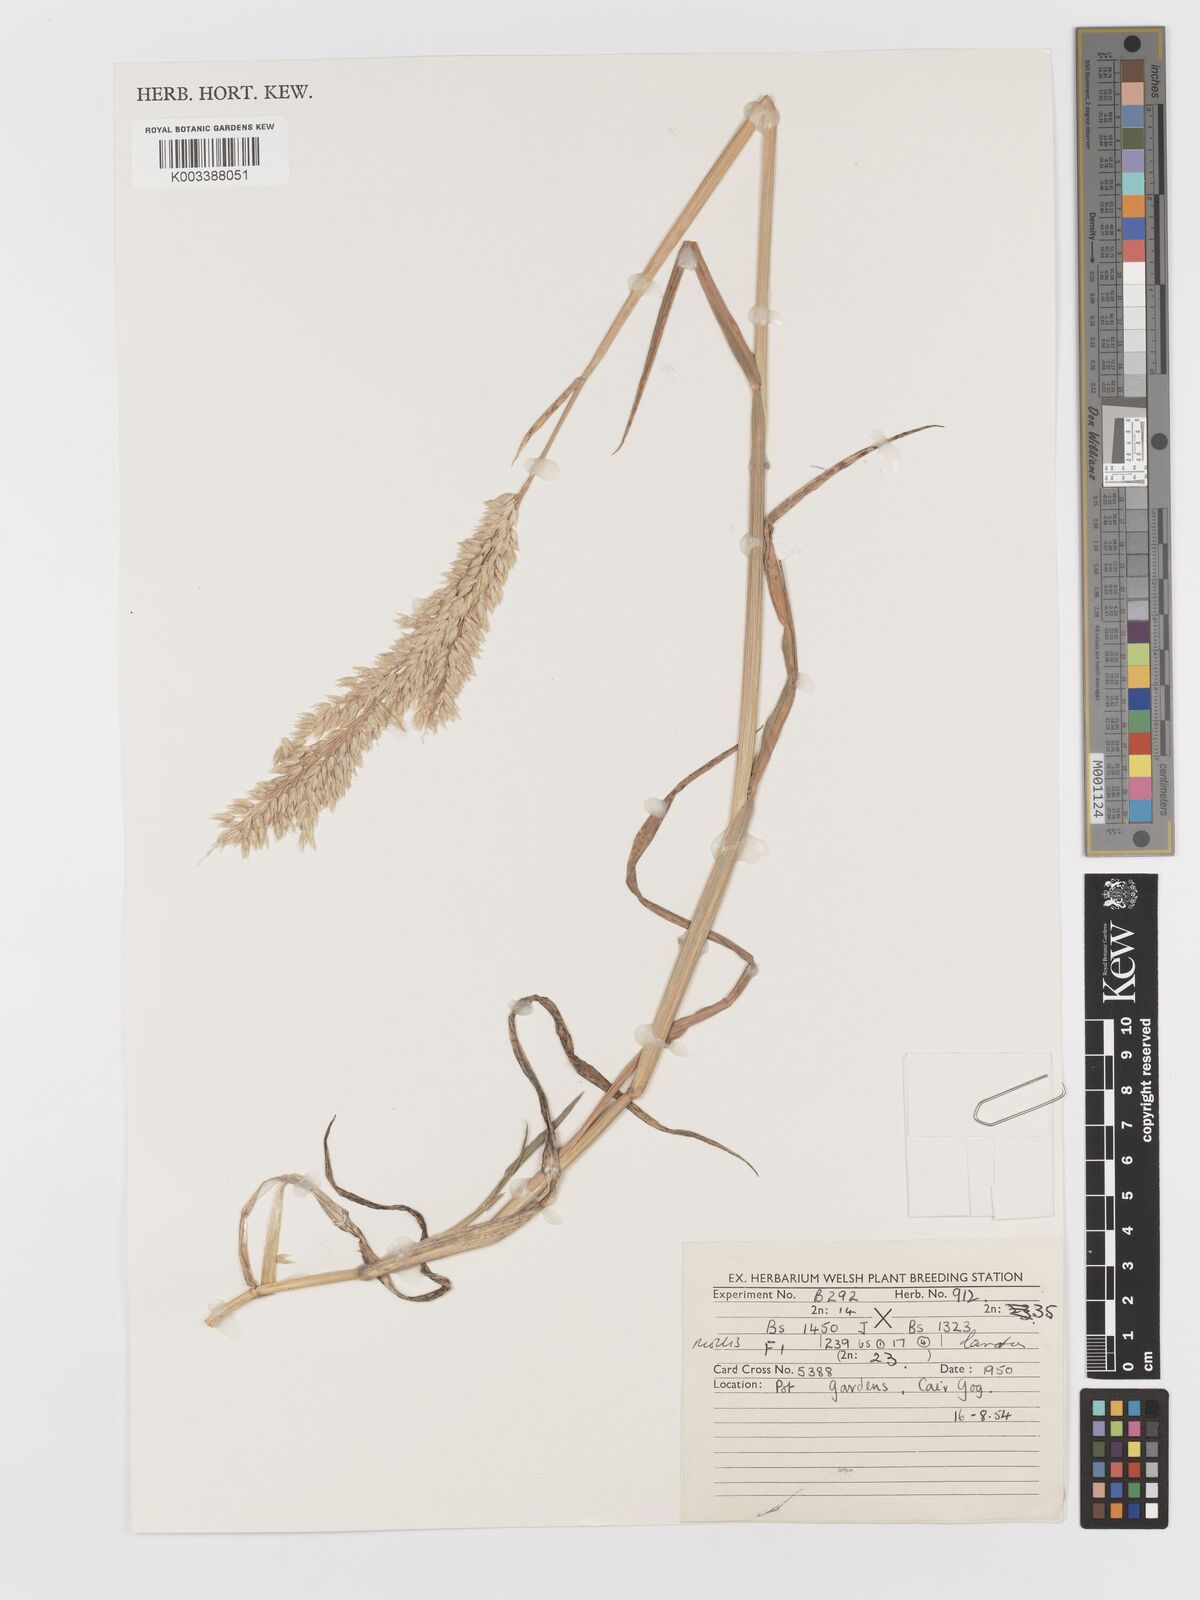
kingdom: Plantae
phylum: Tracheophyta
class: Liliopsida
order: Poales
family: Poaceae
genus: Holcus
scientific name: Holcus lanatus
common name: Yorkshire-fog
